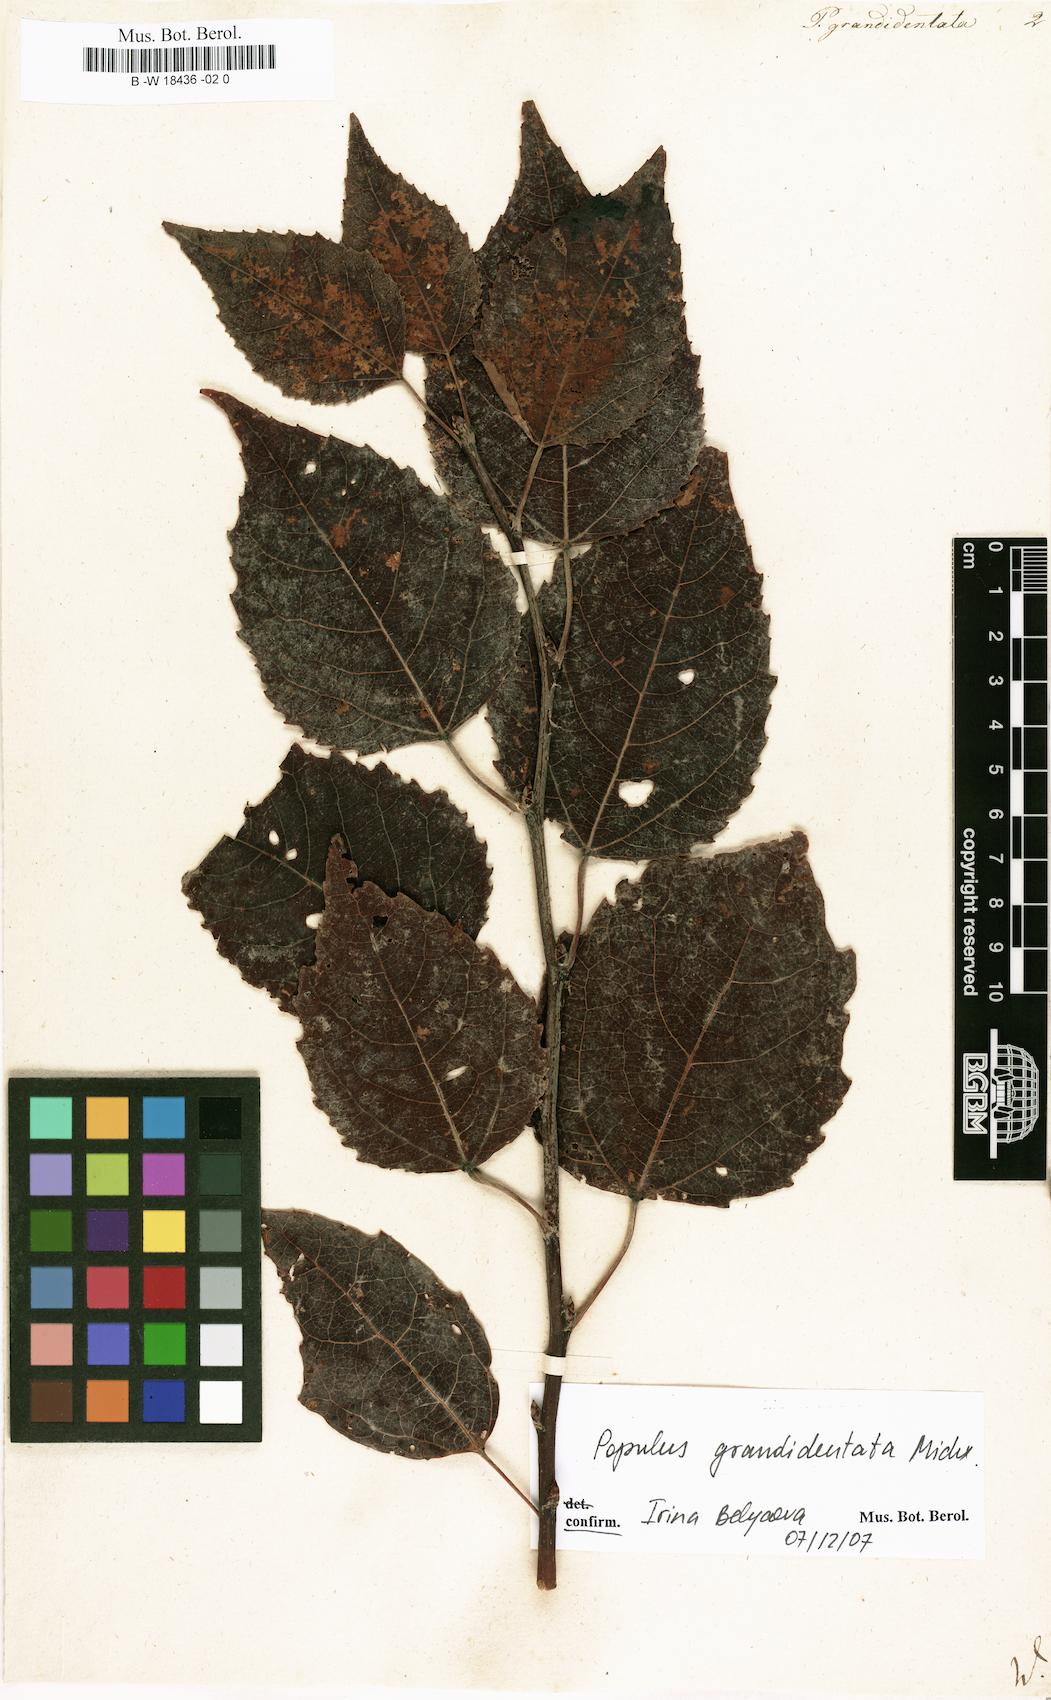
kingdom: Plantae
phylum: Tracheophyta
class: Magnoliopsida
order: Malpighiales
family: Salicaceae
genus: Populus
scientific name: Populus grandidentata
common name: Bigtooth aspen
